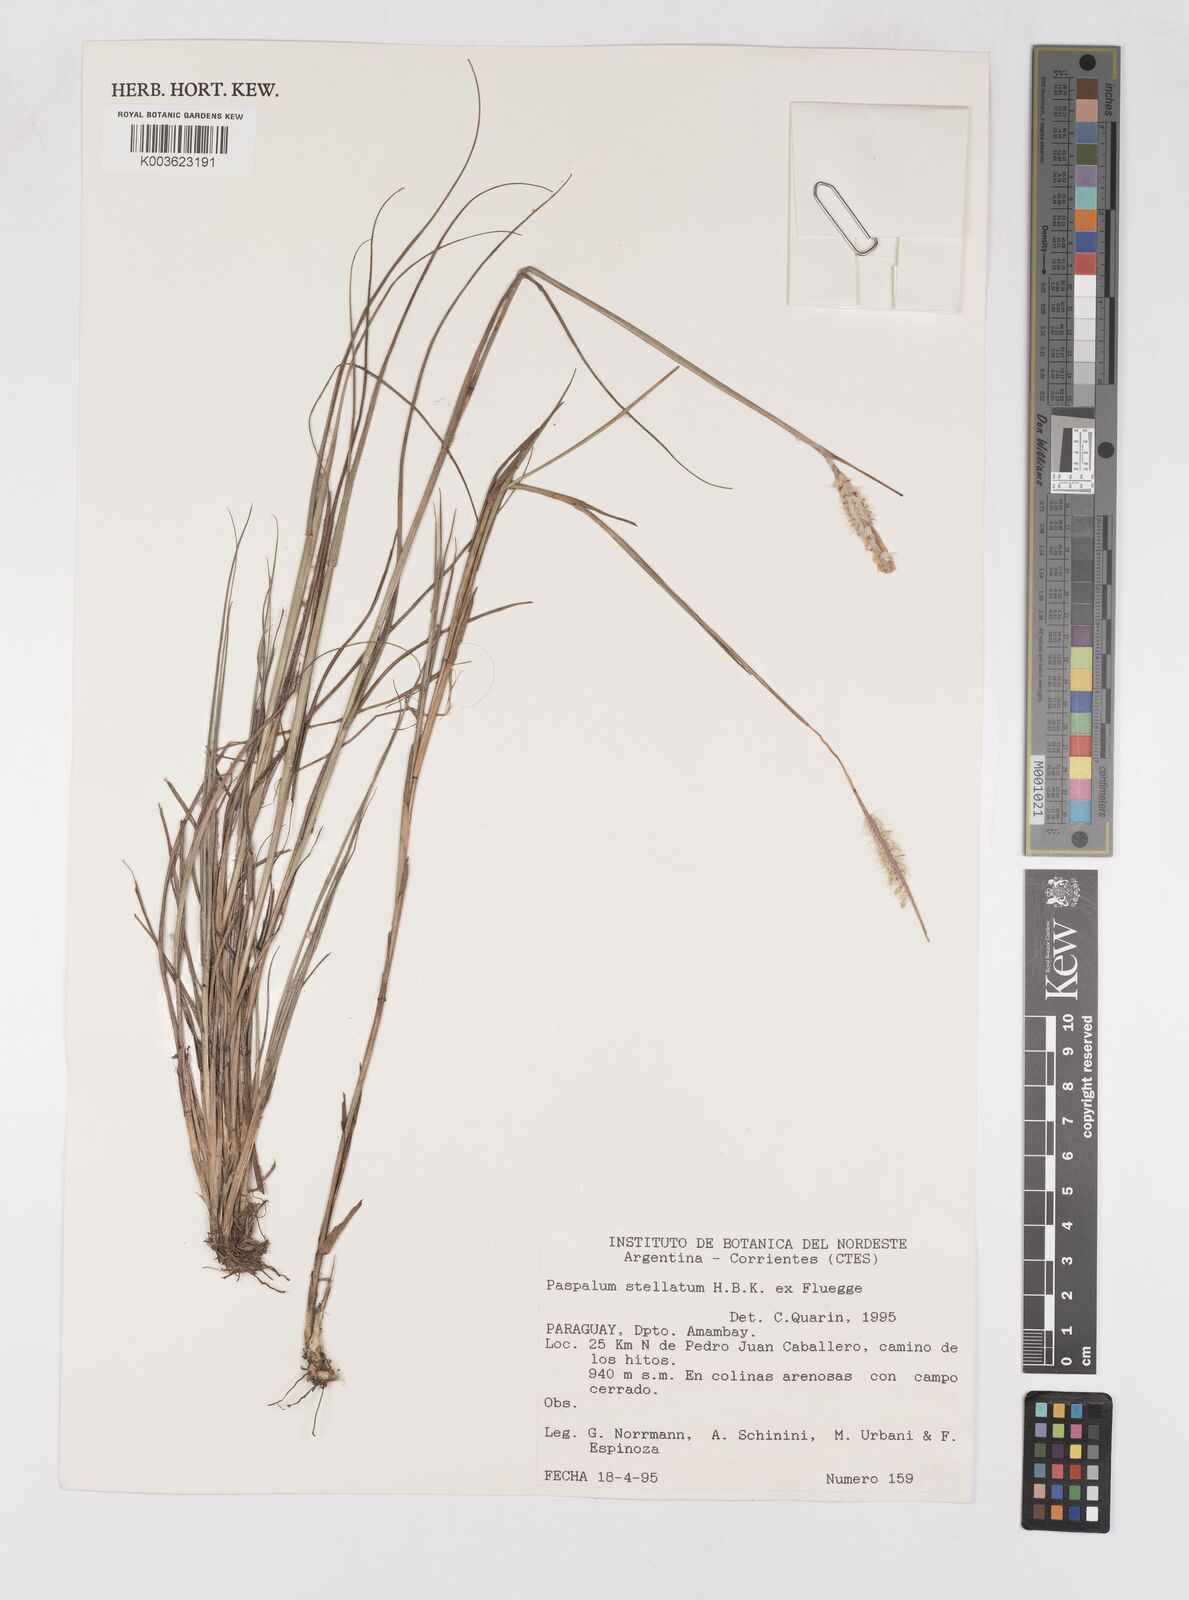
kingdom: Plantae
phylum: Tracheophyta
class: Liliopsida
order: Poales
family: Poaceae
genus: Paspalum
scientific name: Paspalum stellatum
